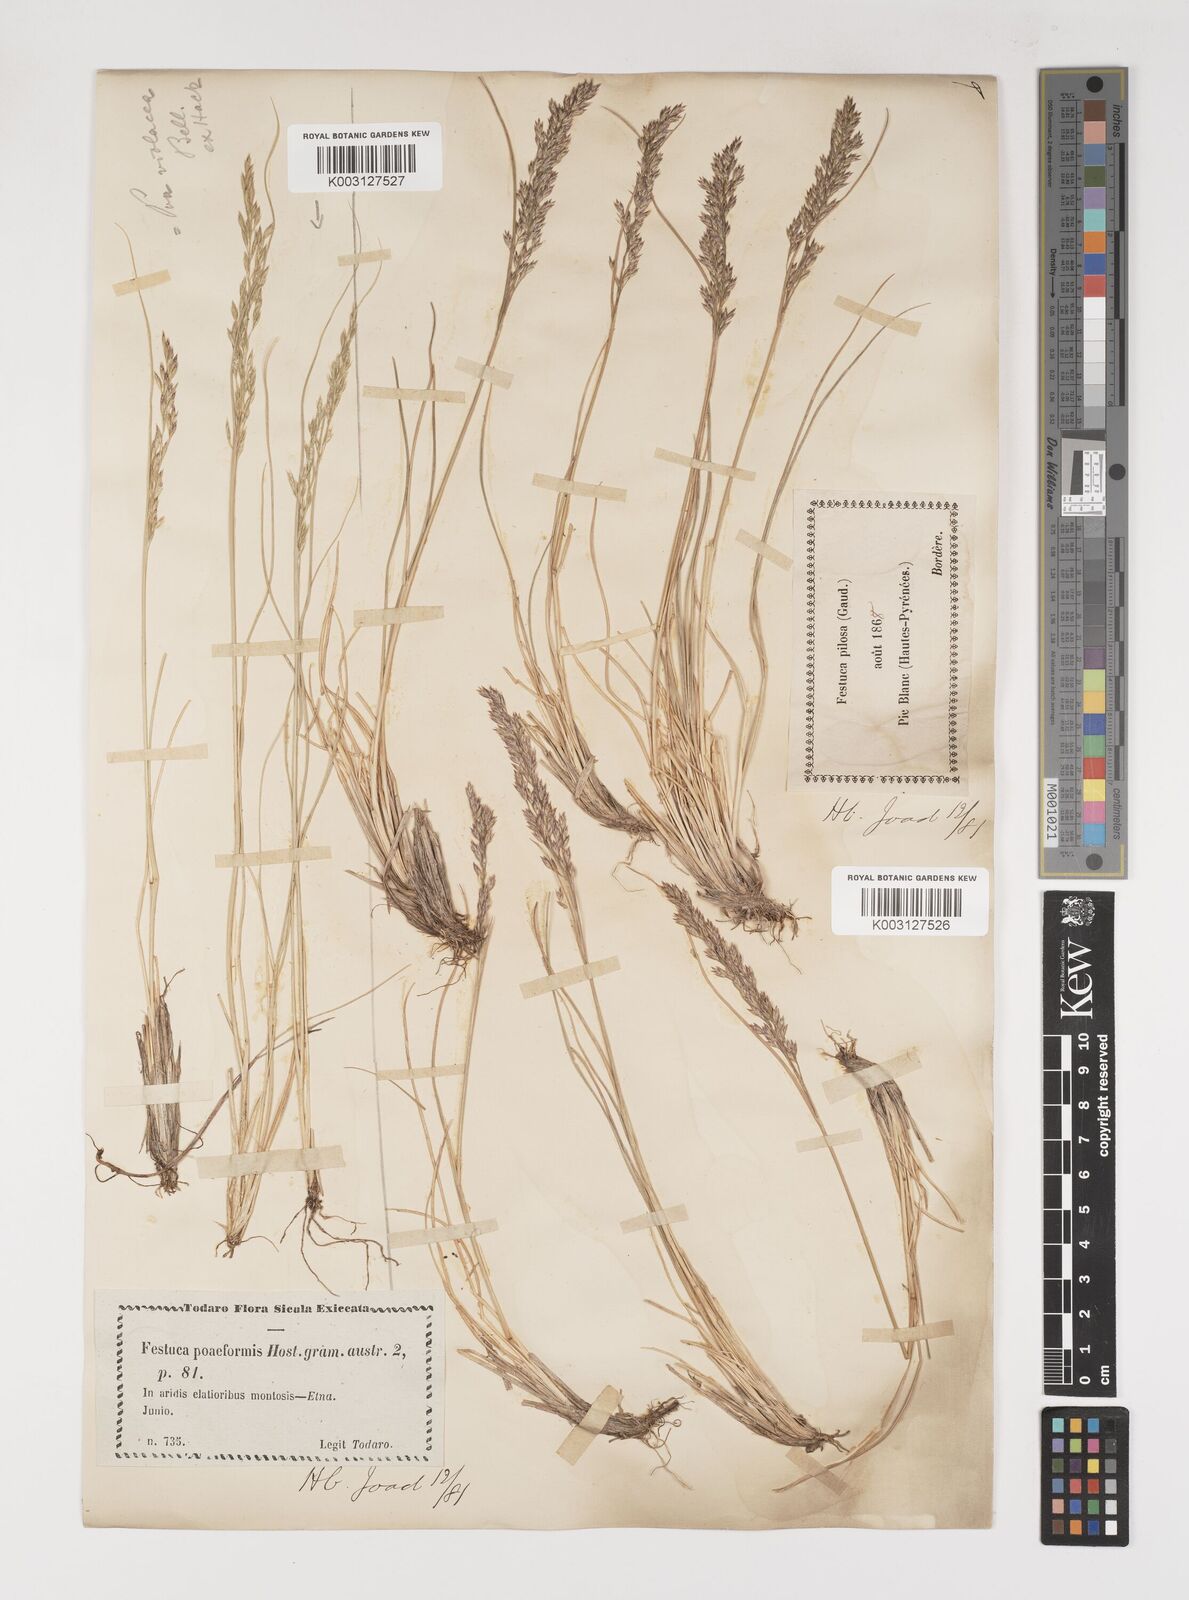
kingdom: Plantae
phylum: Tracheophyta
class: Liliopsida
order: Poales
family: Poaceae
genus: Bellardiochloa
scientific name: Bellardiochloa variegata
